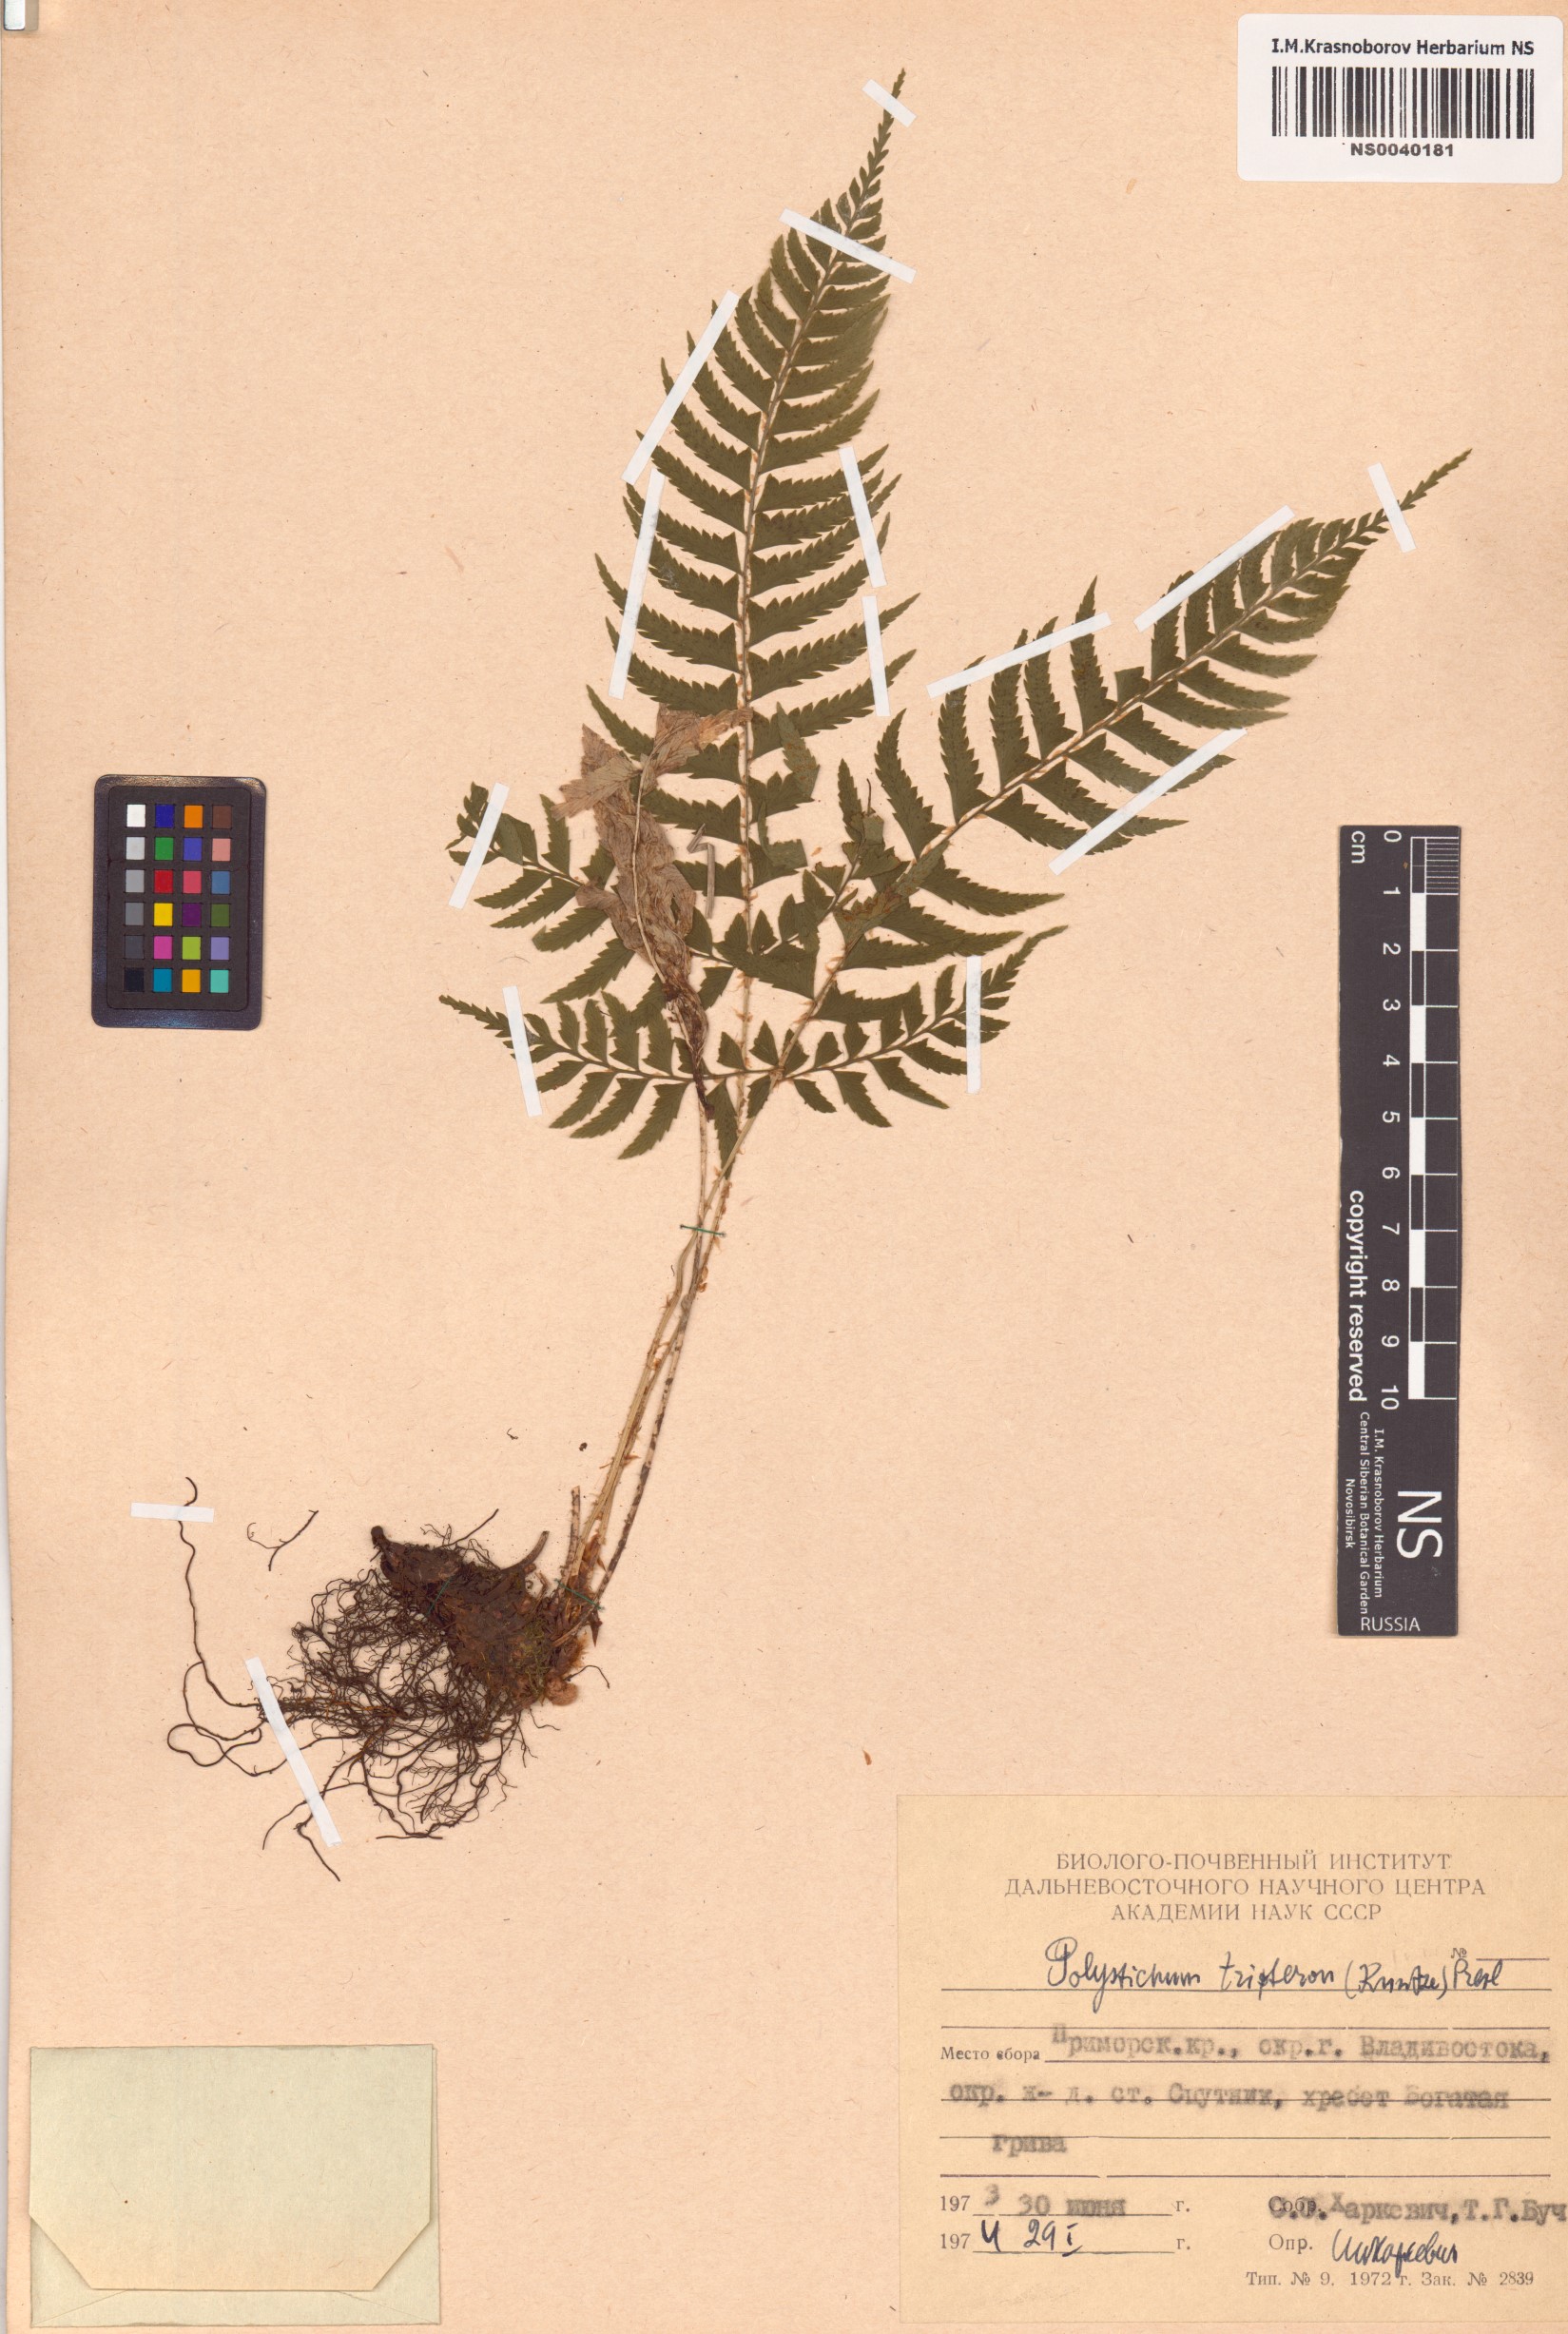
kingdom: Plantae
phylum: Tracheophyta
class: Polypodiopsida
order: Polypodiales
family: Dryopteridaceae
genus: Polystichum
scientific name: Polystichum tripteron
